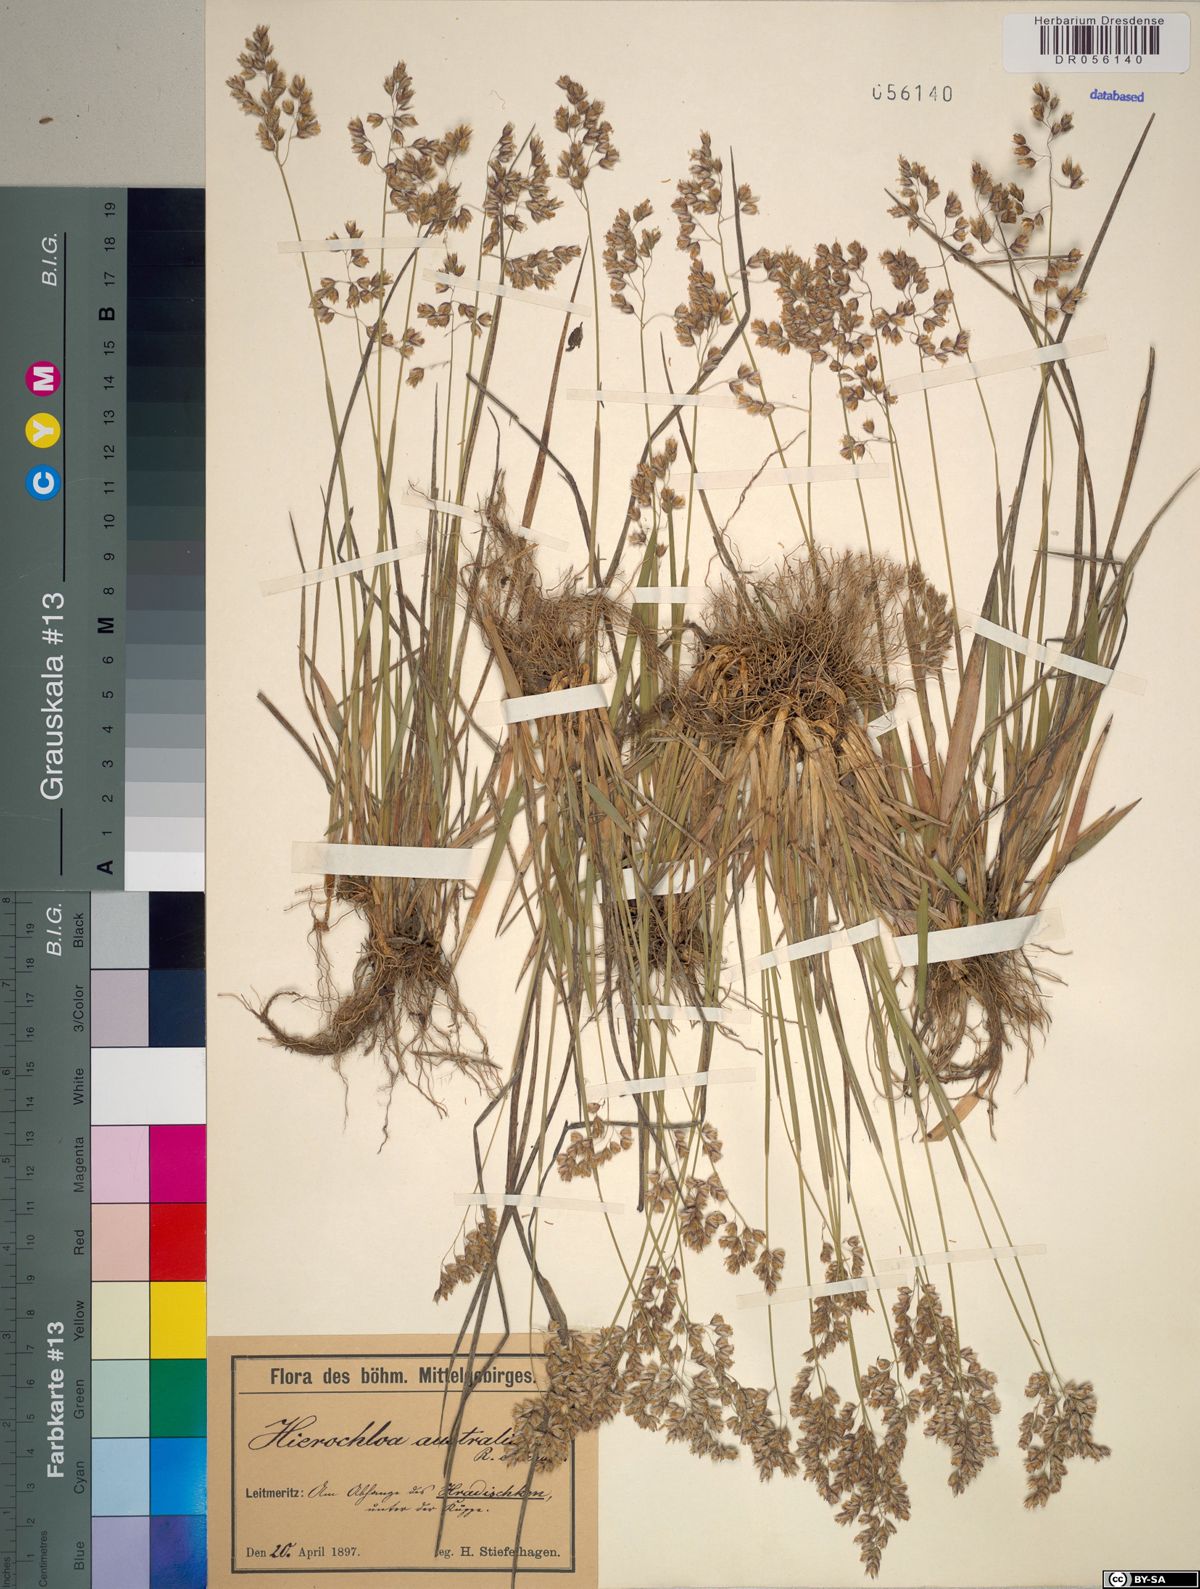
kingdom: Plantae
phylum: Tracheophyta
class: Liliopsida
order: Poales
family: Poaceae
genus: Anthoxanthum
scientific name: Anthoxanthum australe
